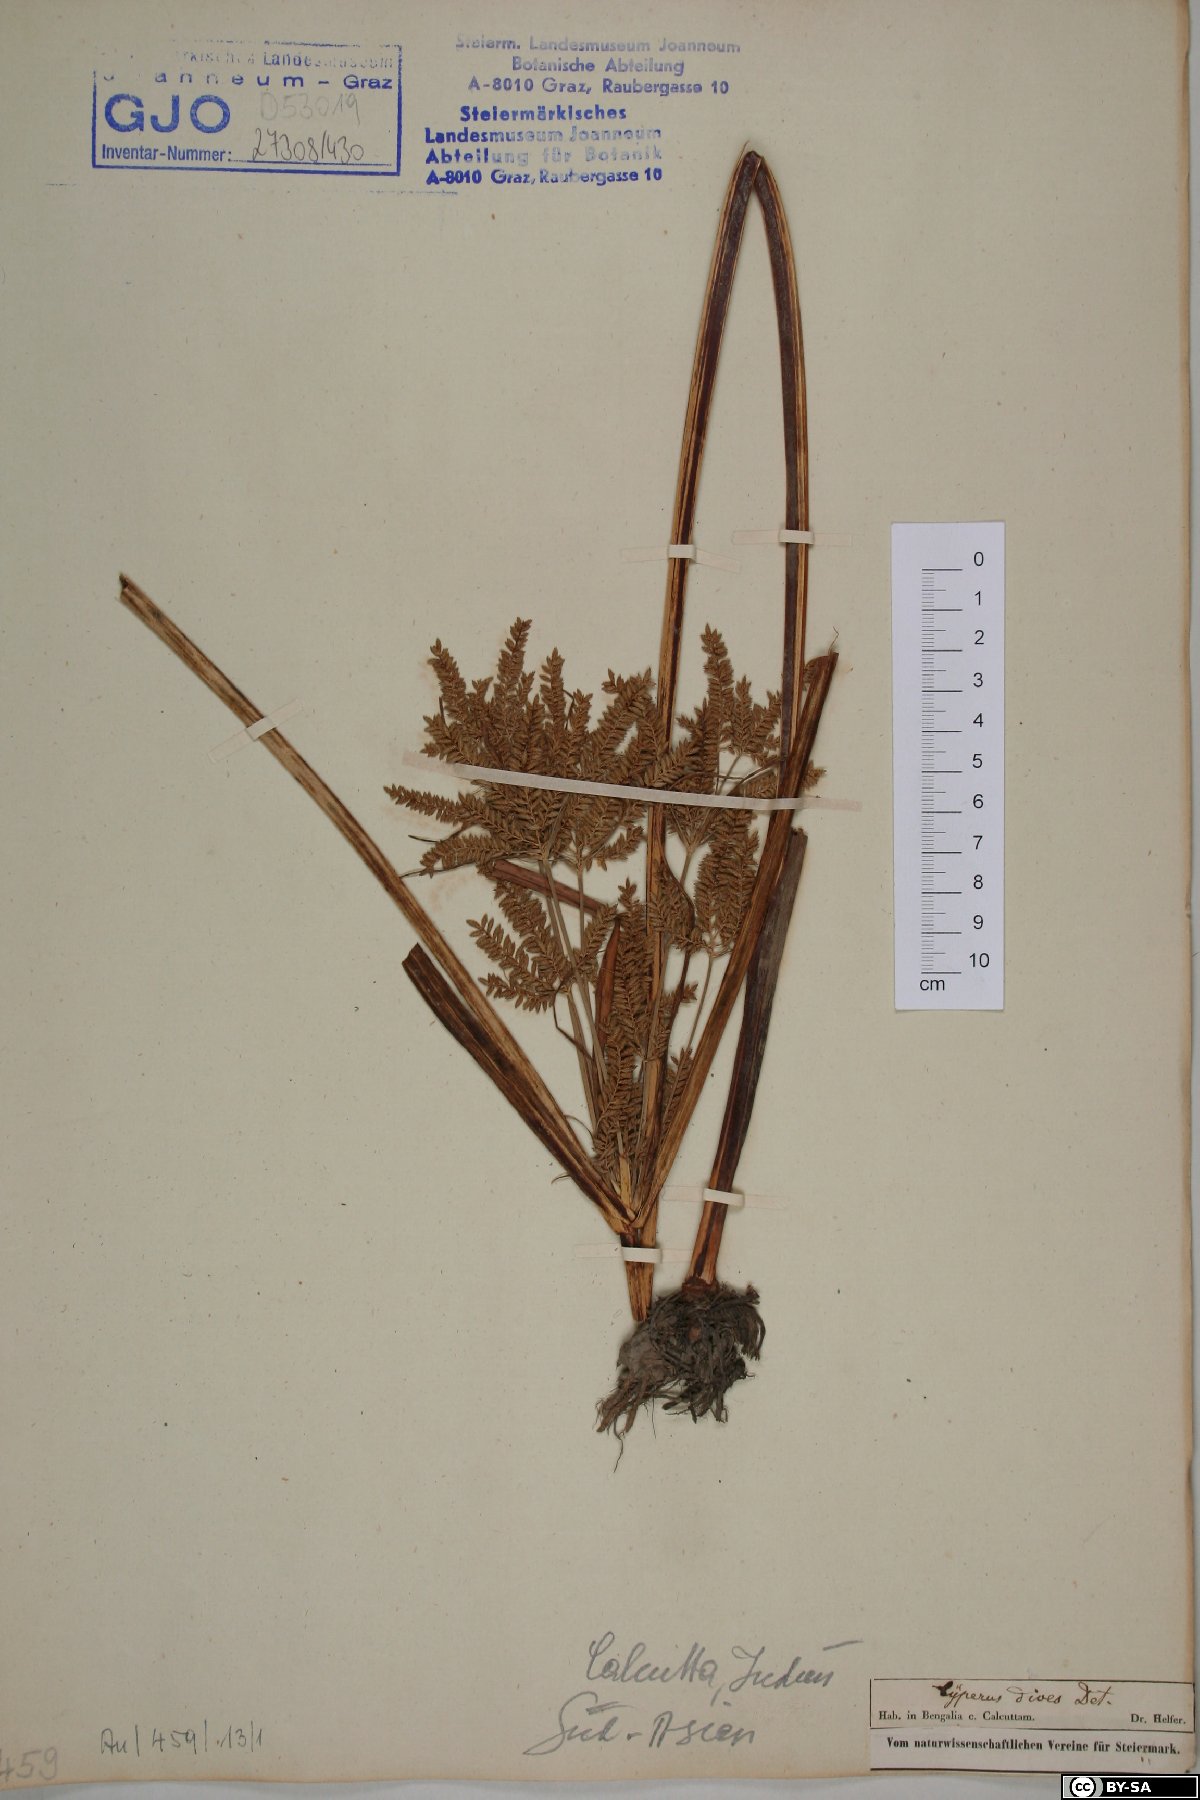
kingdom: Plantae
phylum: Tracheophyta
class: Liliopsida
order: Poales
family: Cyperaceae
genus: Cyperus
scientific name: Cyperus dives
